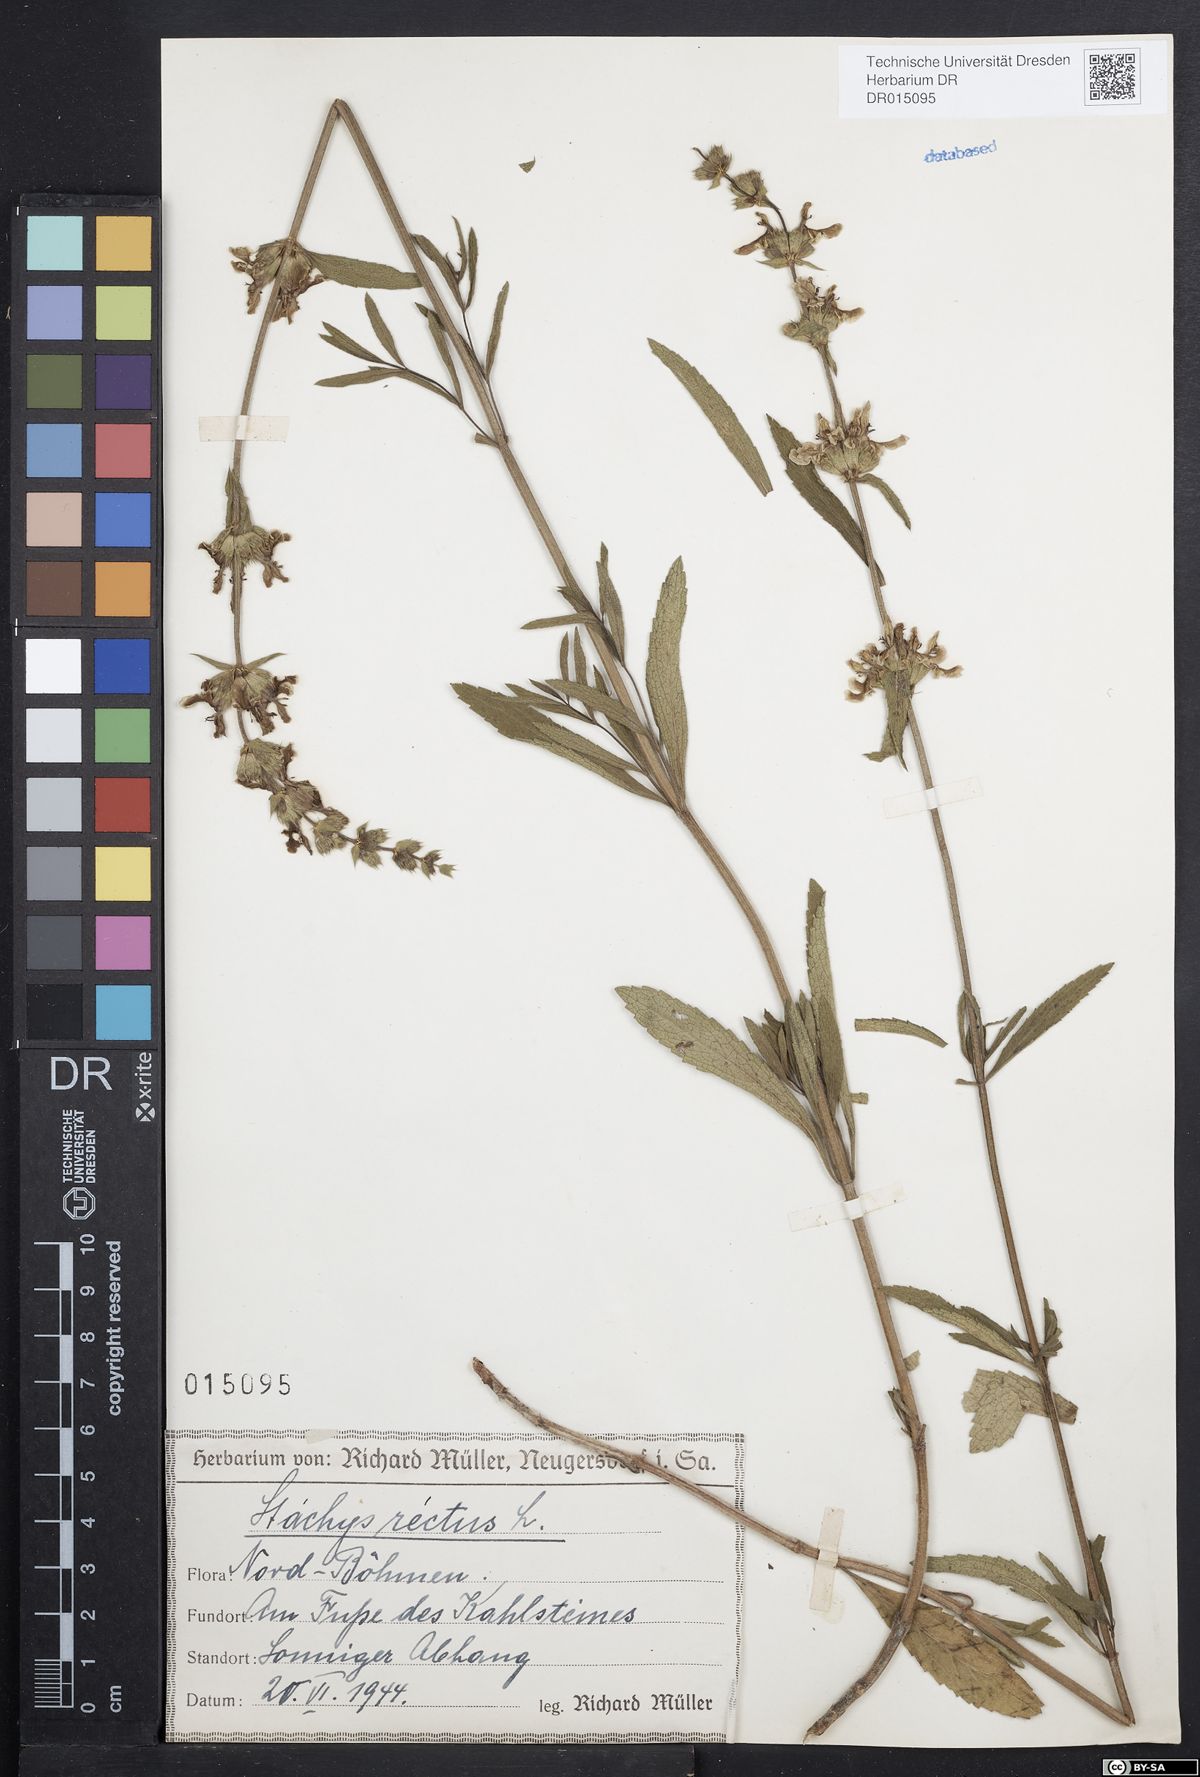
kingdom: Plantae
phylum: Tracheophyta
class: Magnoliopsida
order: Lamiales
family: Lamiaceae
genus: Stachys
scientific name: Stachys recta
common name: Perennial yellow-woundwort
